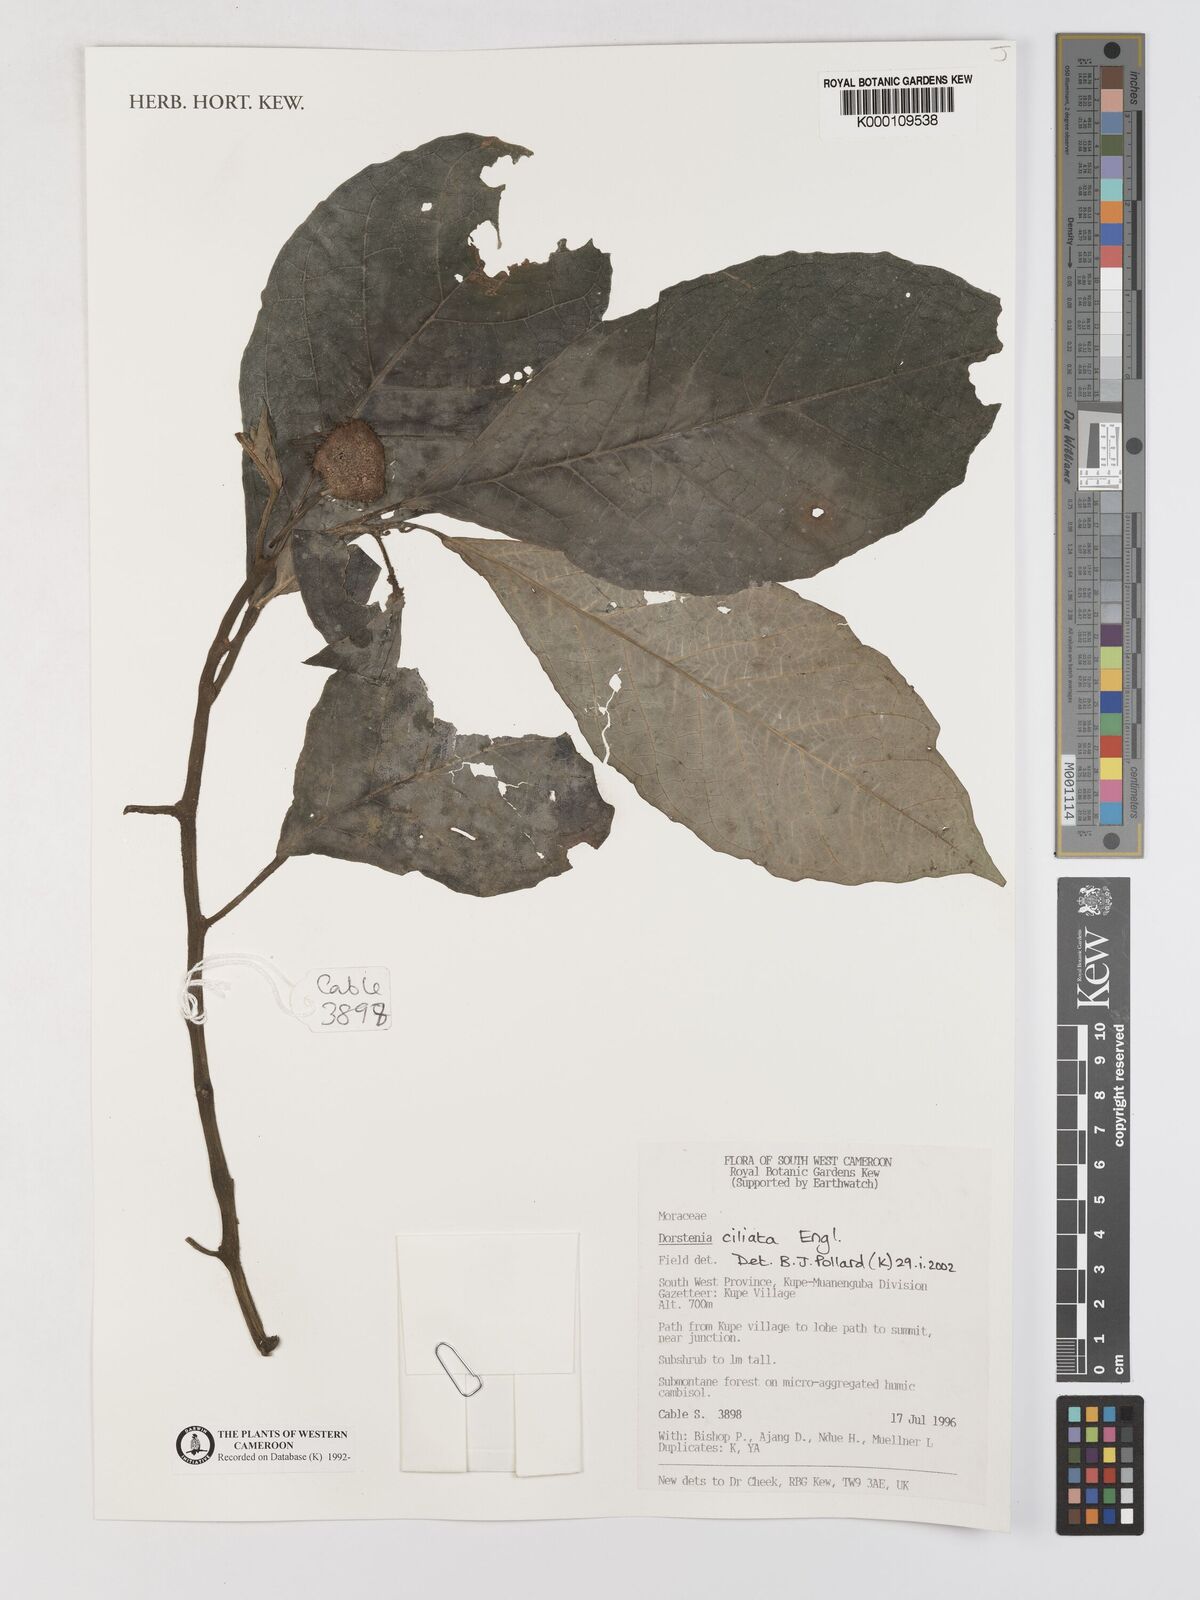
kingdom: Plantae
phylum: Tracheophyta
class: Magnoliopsida
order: Rosales
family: Moraceae
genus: Dorstenia
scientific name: Dorstenia ciliata
